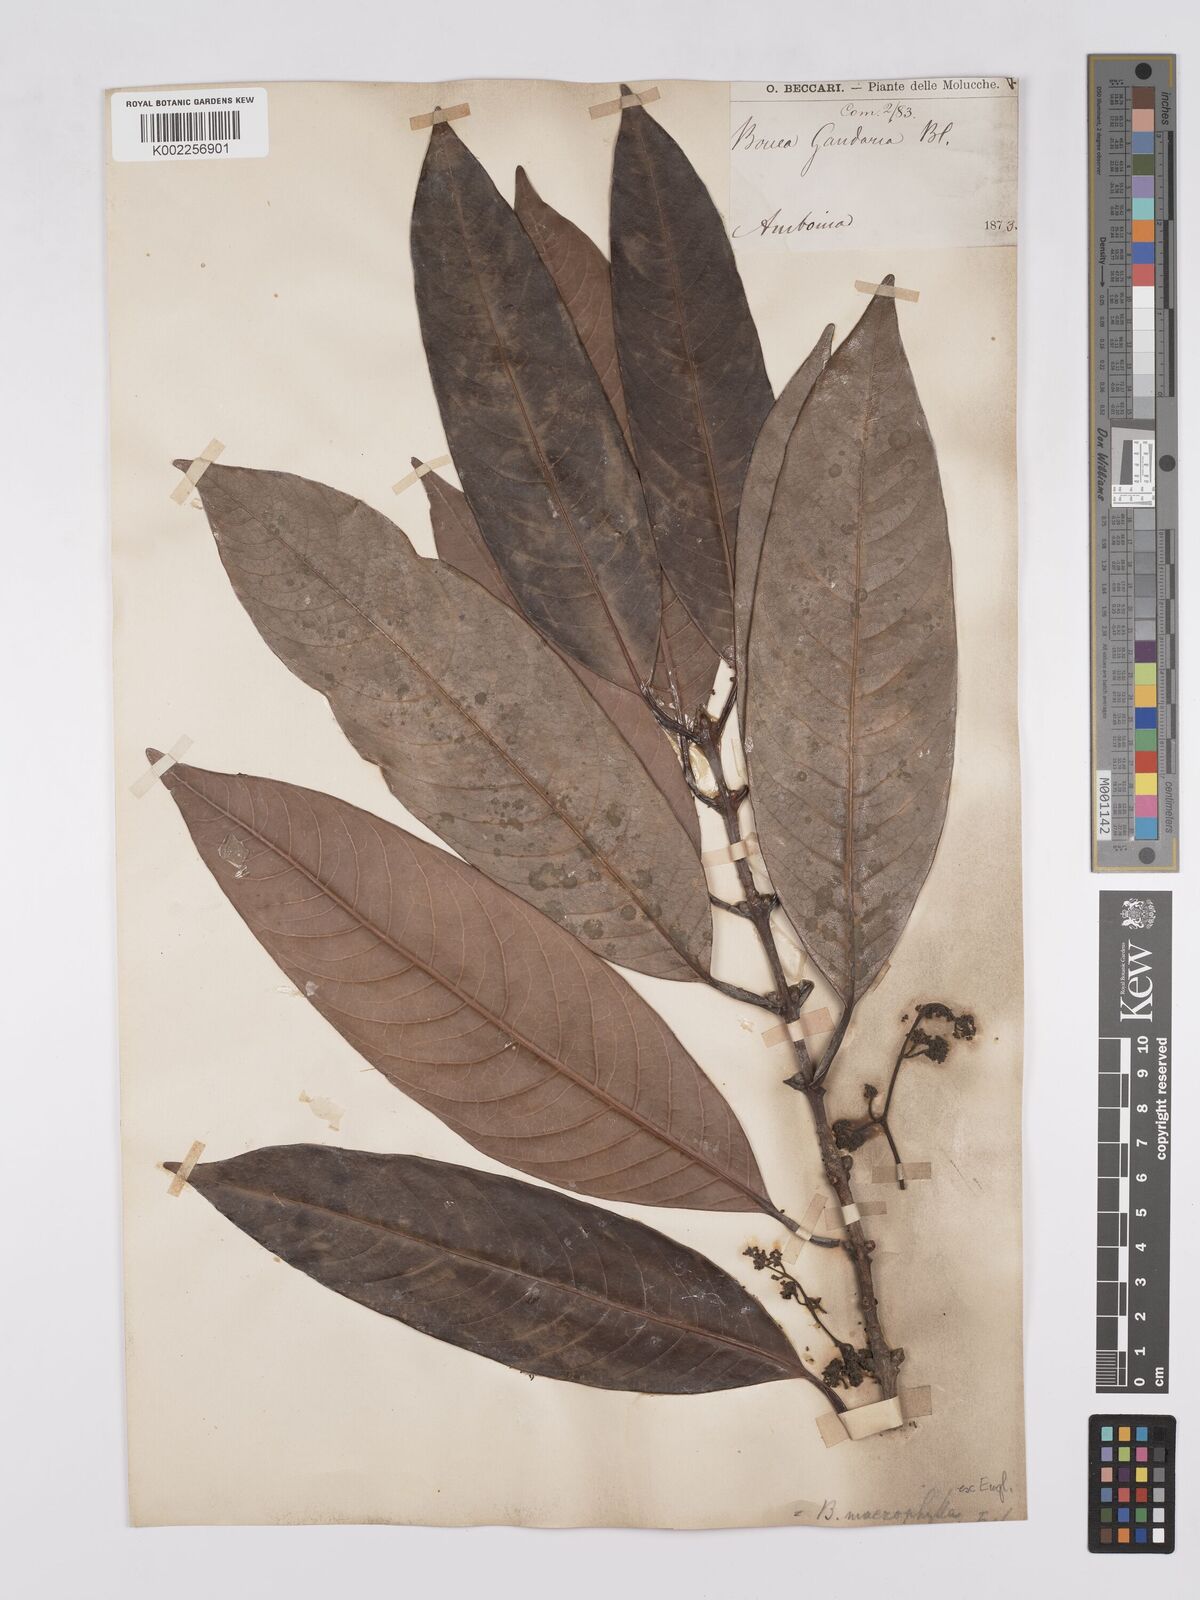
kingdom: Plantae
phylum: Tracheophyta
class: Magnoliopsida
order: Sapindales
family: Anacardiaceae
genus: Bouea
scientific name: Bouea macrophylla
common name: Gandaria
